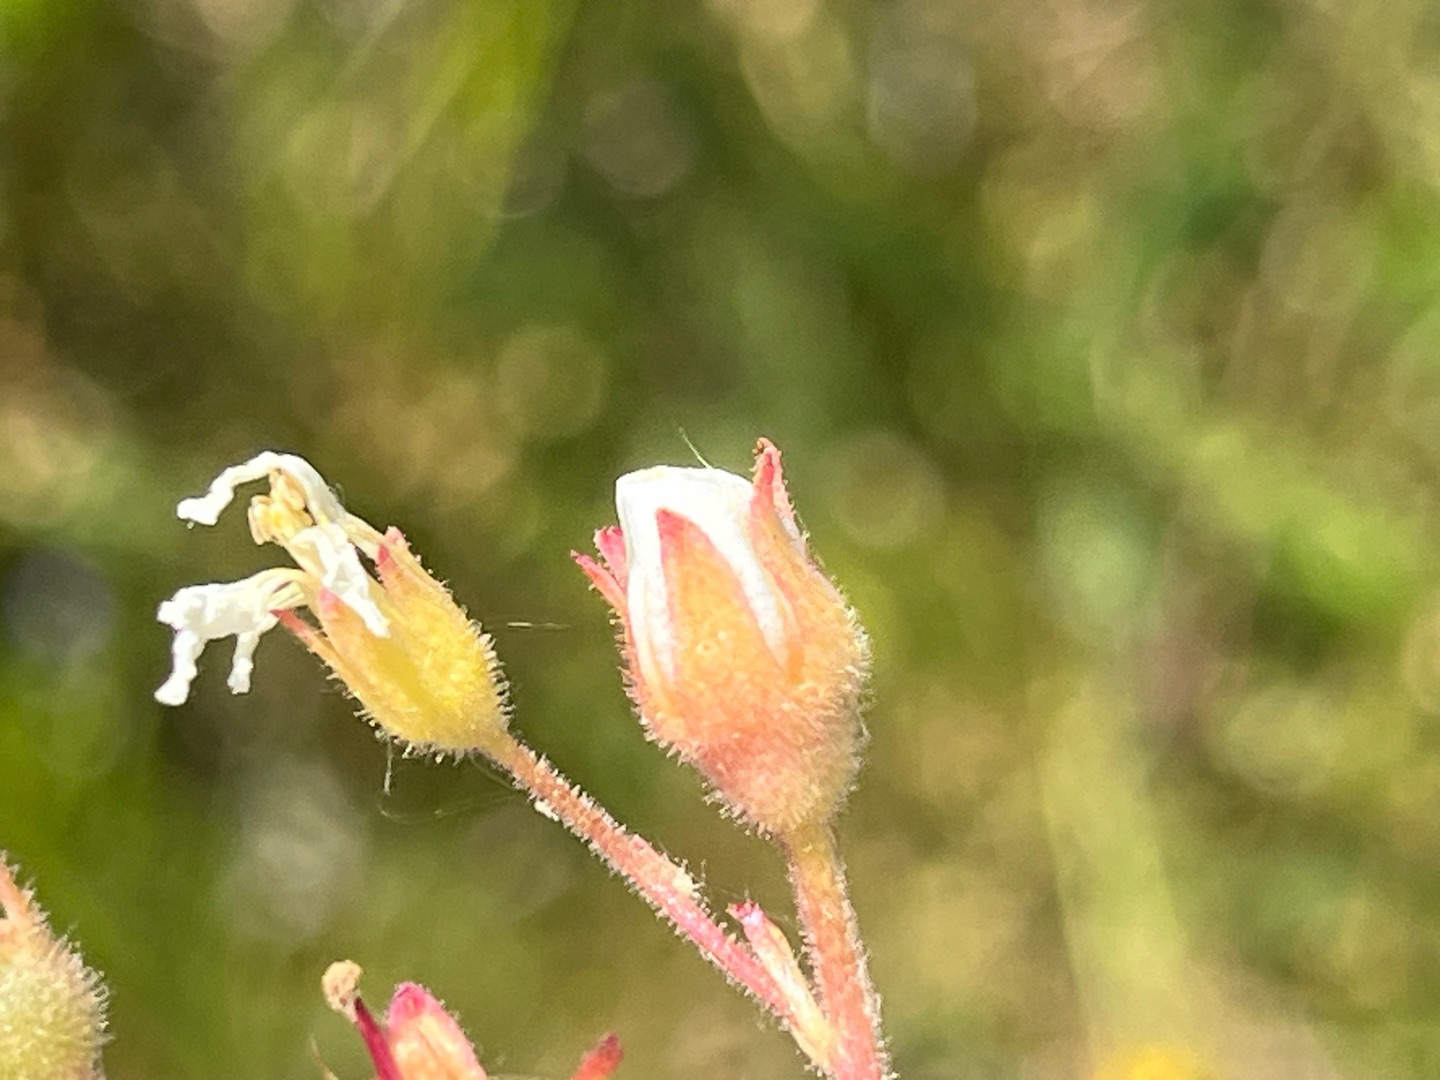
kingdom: Animalia
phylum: Arthropoda
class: Insecta
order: Diptera
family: Cecidomyiidae
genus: Dasineura
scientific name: Dasineura saxifragae
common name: Stenbrækgalmyg
